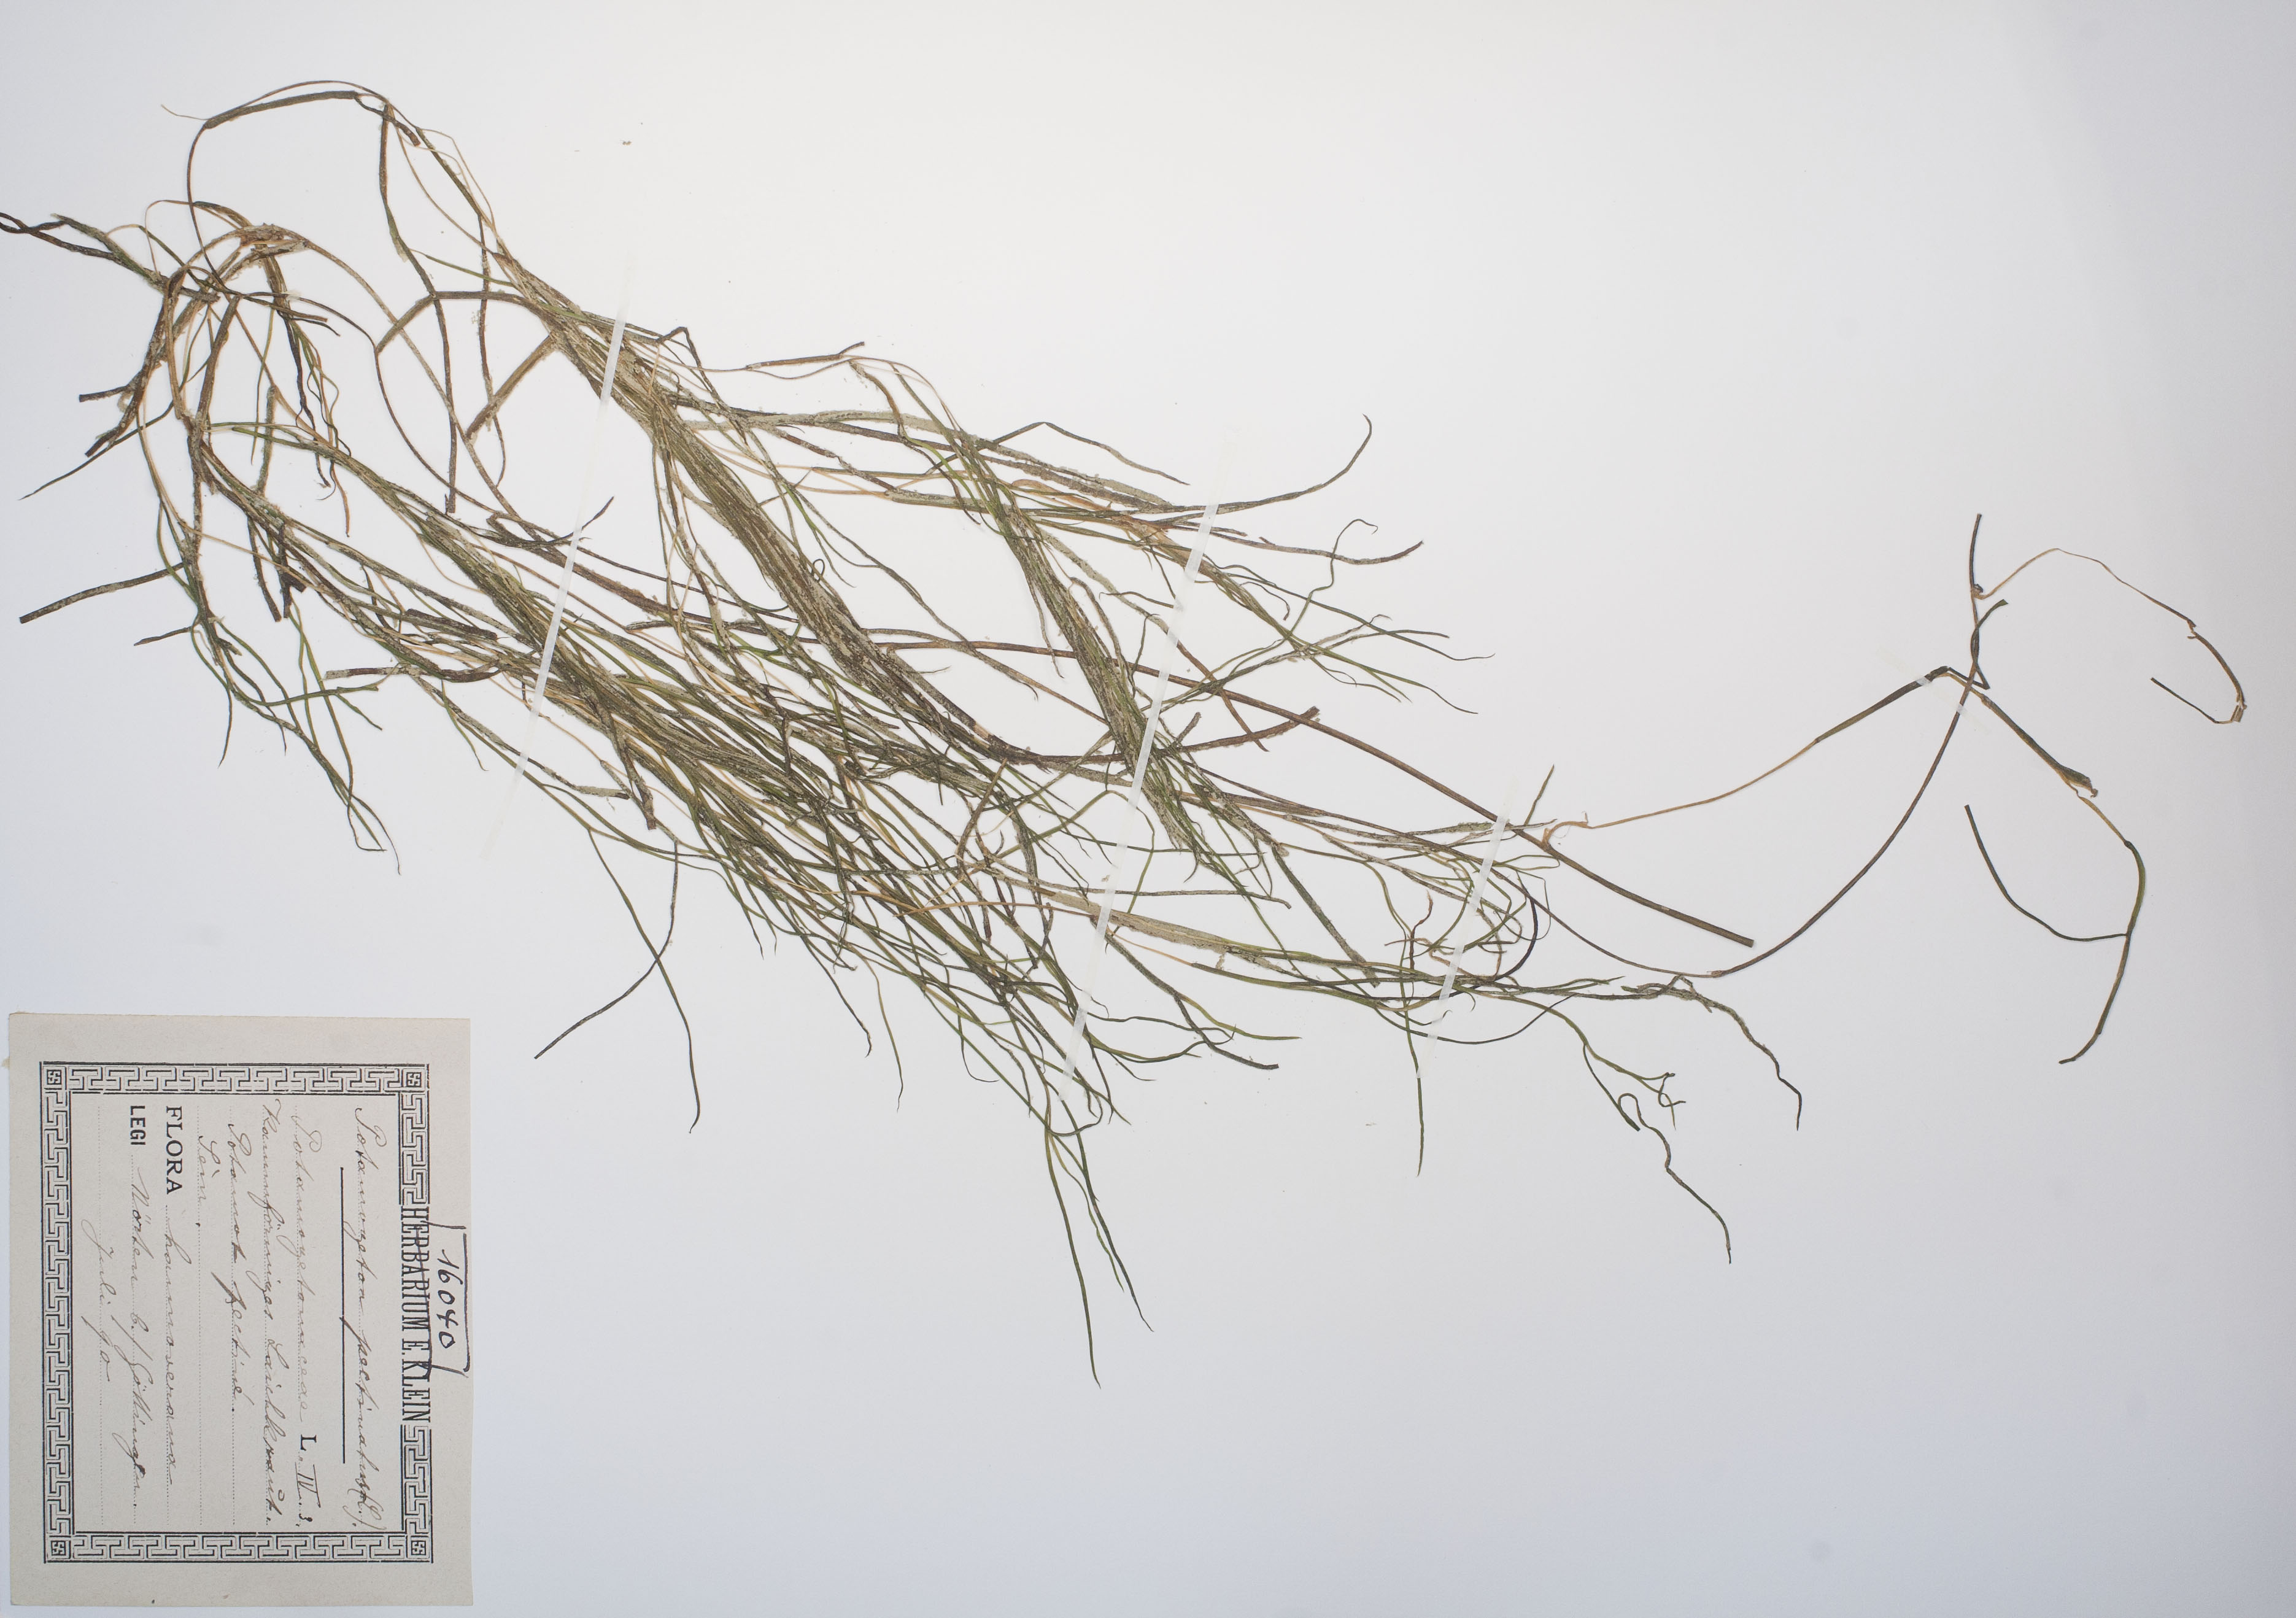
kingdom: Plantae
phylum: Tracheophyta
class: Liliopsida
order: Alismatales
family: Potamogetonaceae
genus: Stuckenia
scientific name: Stuckenia pectinata
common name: Sago pondweed
